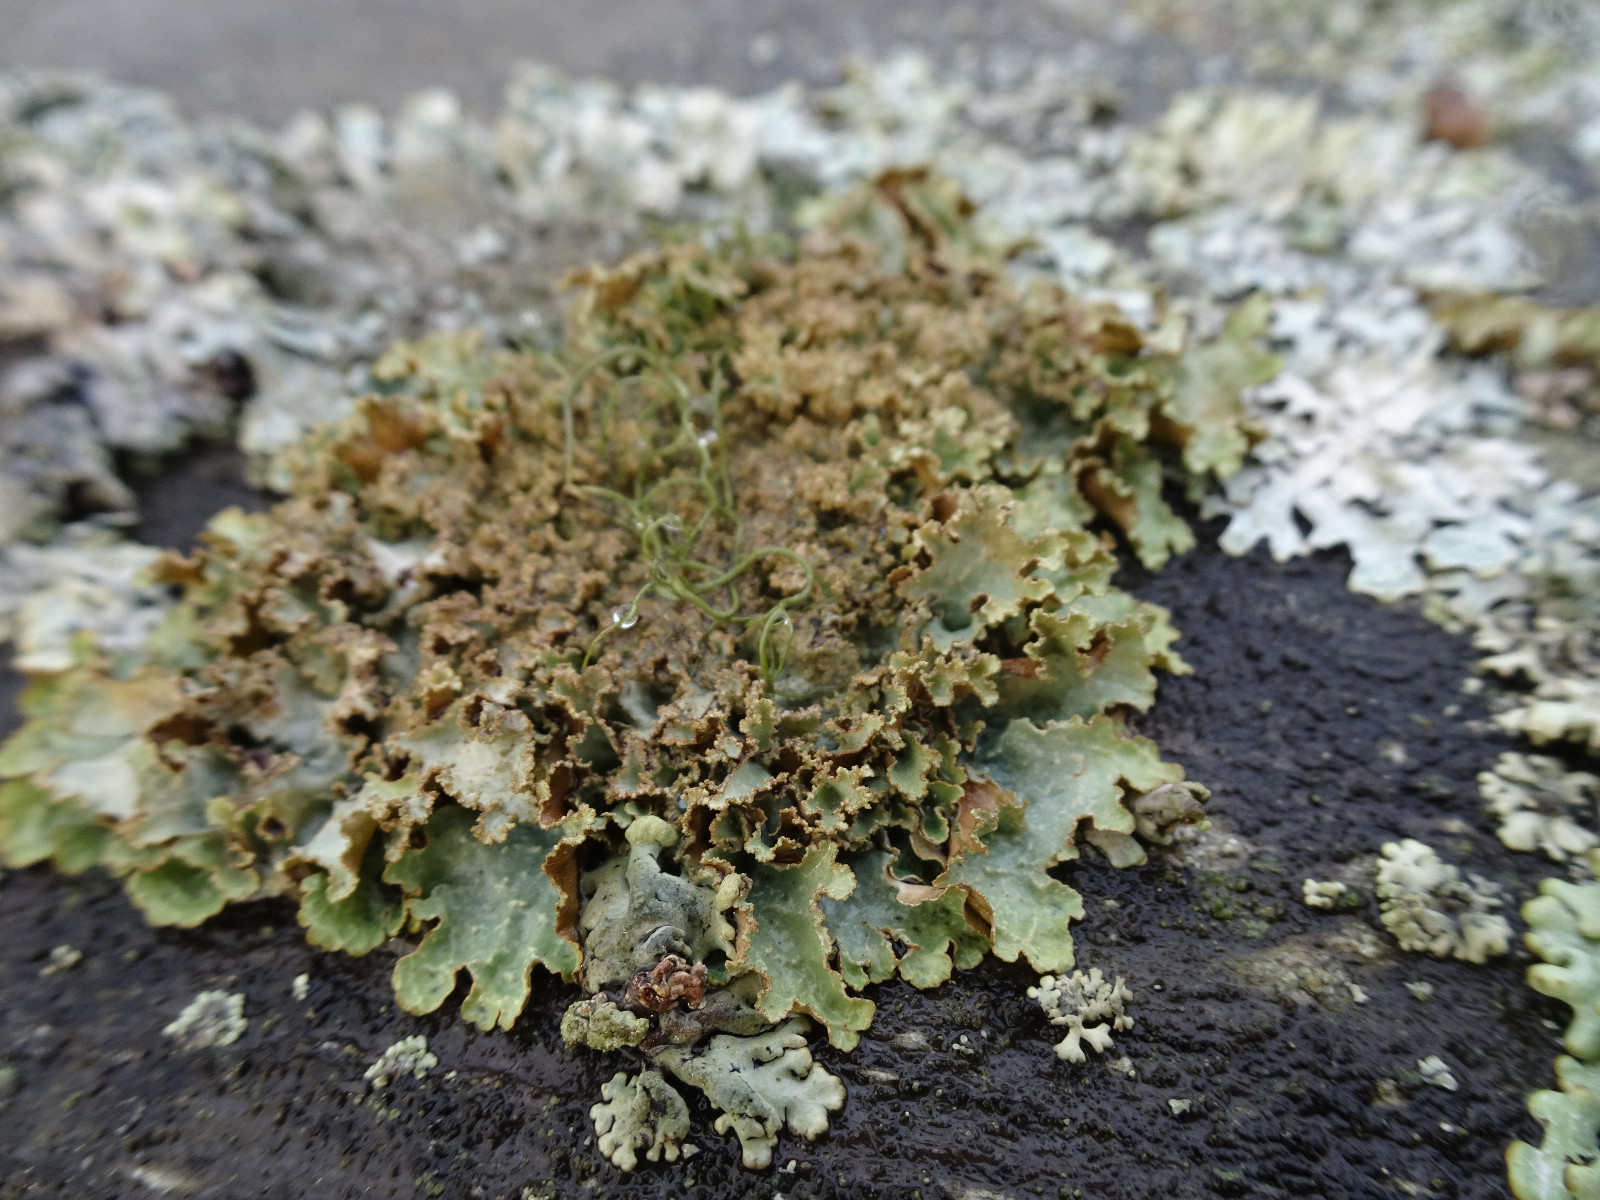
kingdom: Fungi
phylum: Ascomycota
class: Lecanoromycetes
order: Lecanorales
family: Parmeliaceae
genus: Platismatia
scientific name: Platismatia glauca
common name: blågrå papirlav
